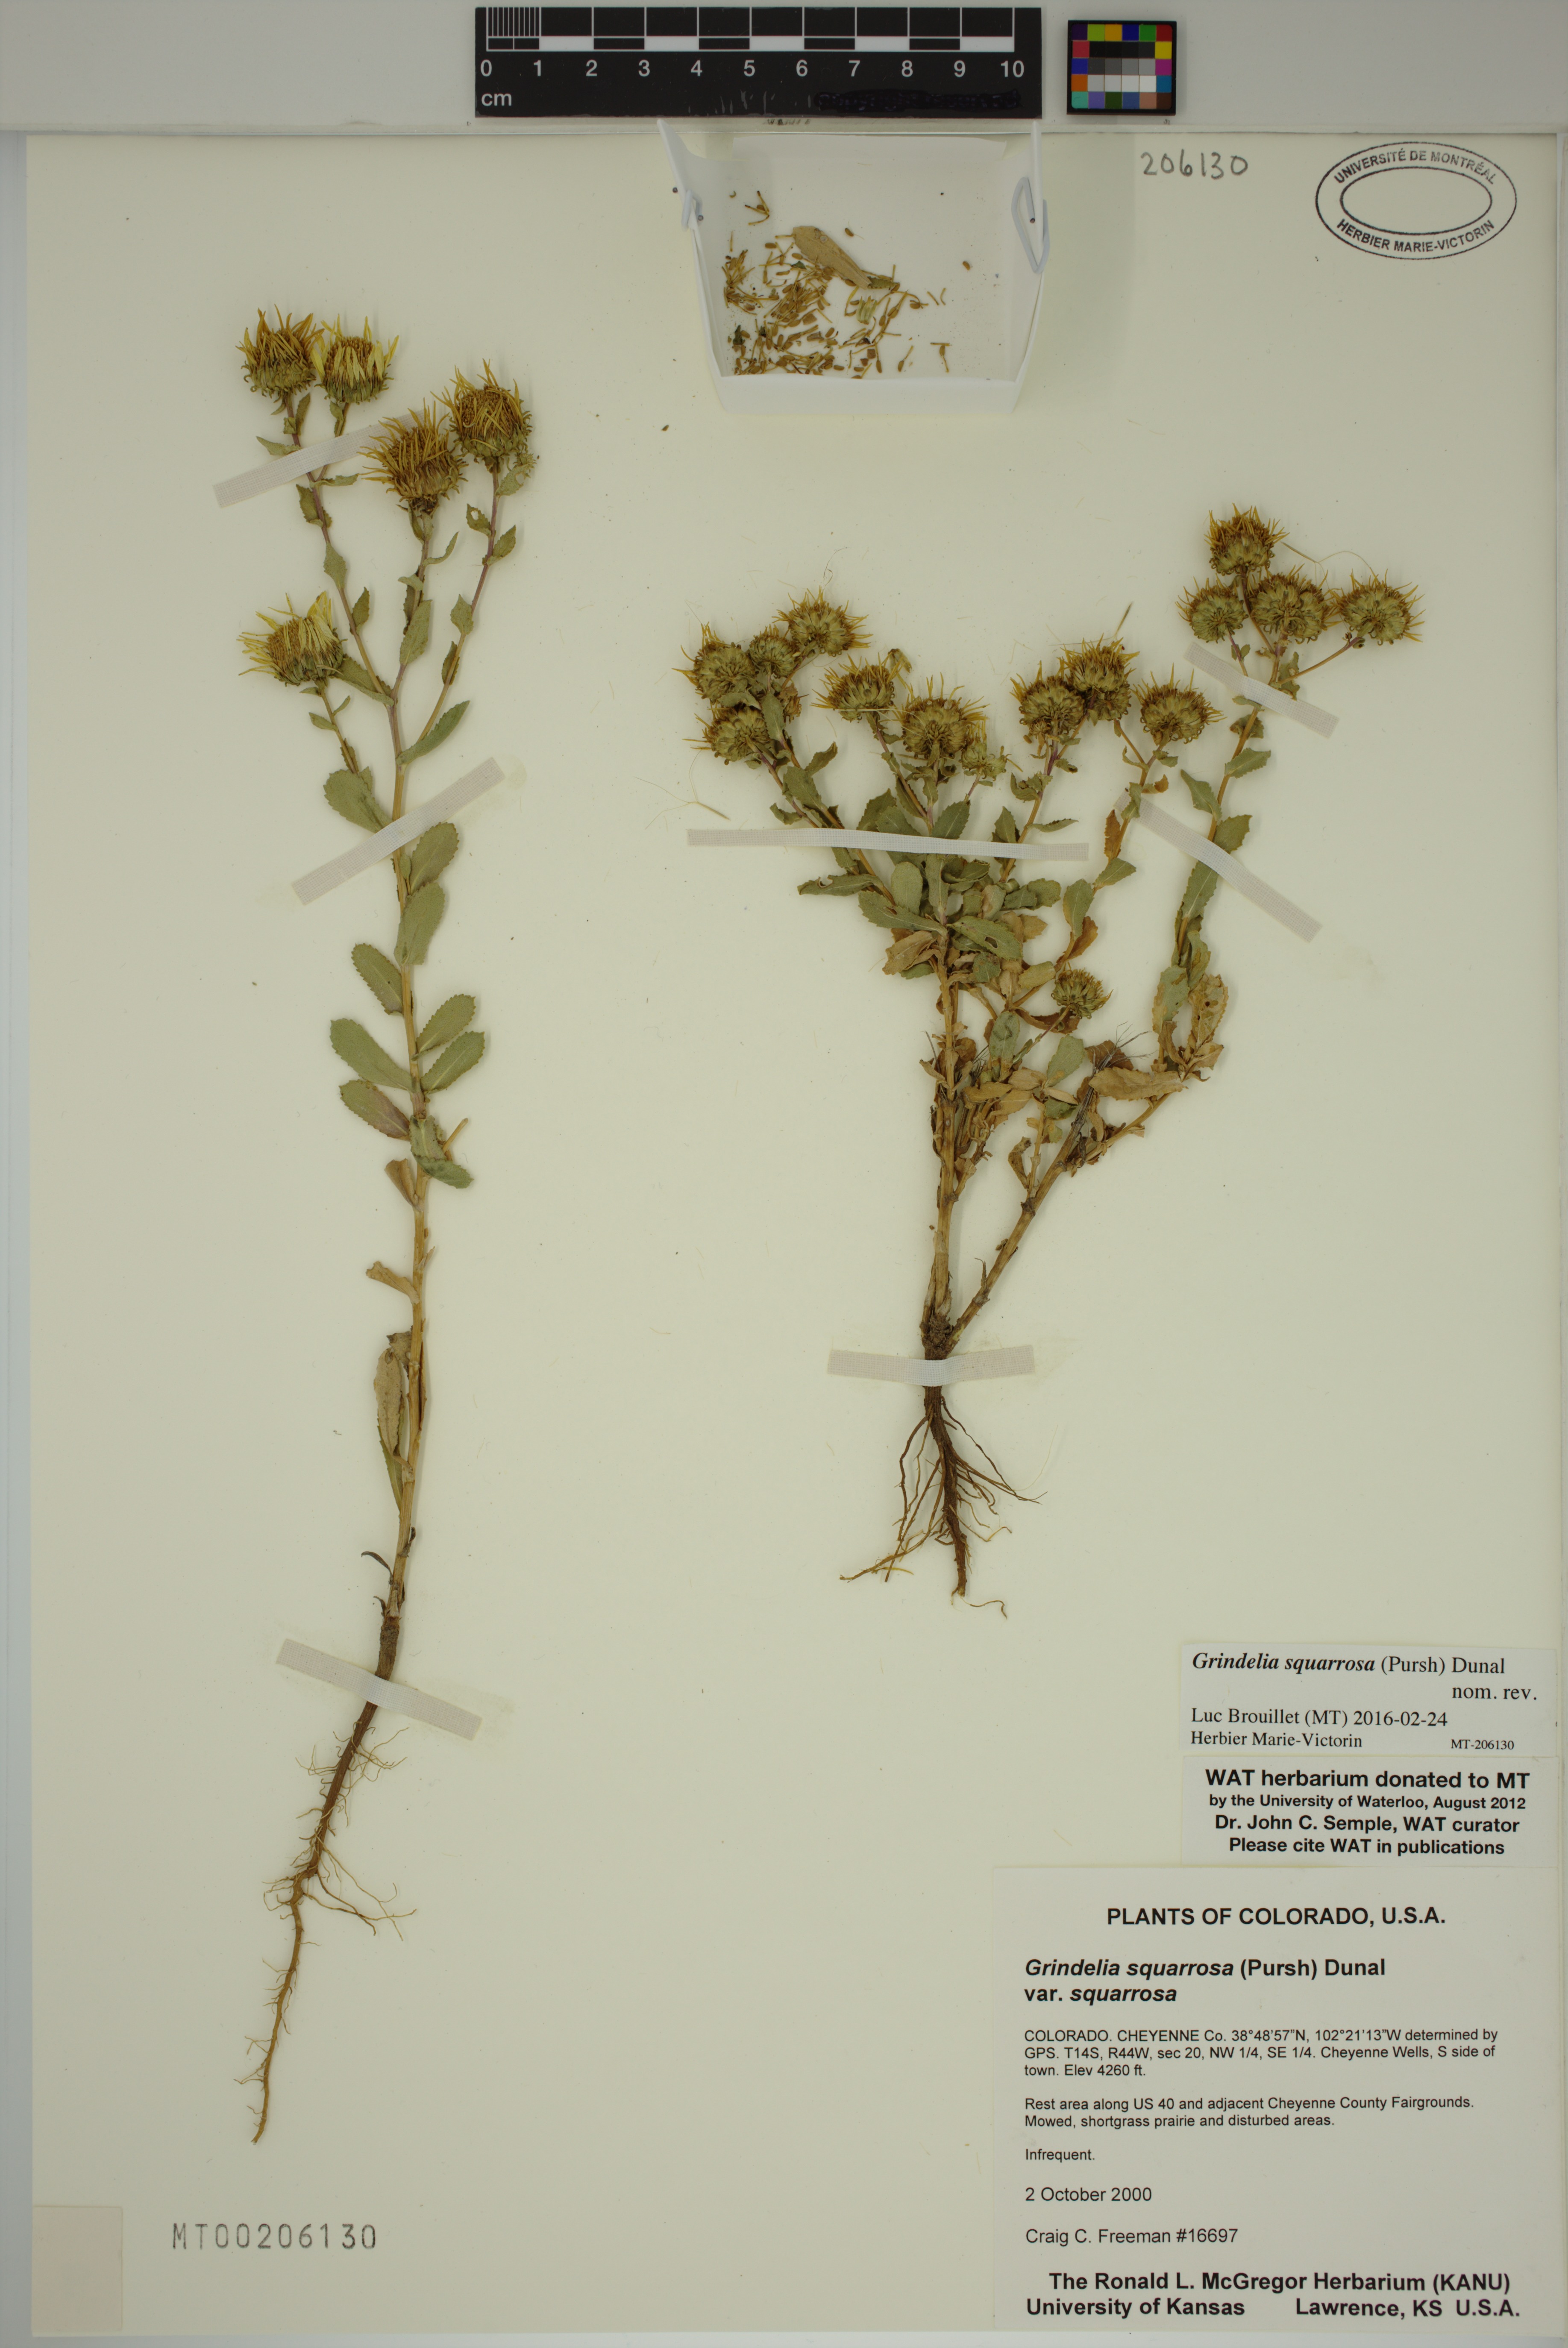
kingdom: Plantae
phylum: Tracheophyta
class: Magnoliopsida
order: Asterales
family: Asteraceae
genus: Grindelia
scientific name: Grindelia squarrosa
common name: Curly-cup gumweed
